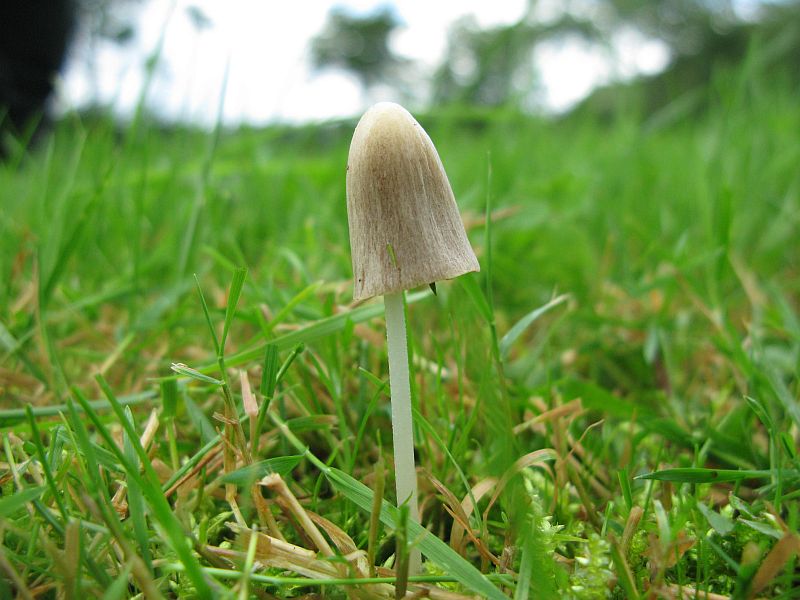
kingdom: Fungi
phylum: Basidiomycota
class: Agaricomycetes
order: Agaricales
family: Bolbitiaceae
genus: Conocybe
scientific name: Conocybe apala
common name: mælkehvid keglehat
